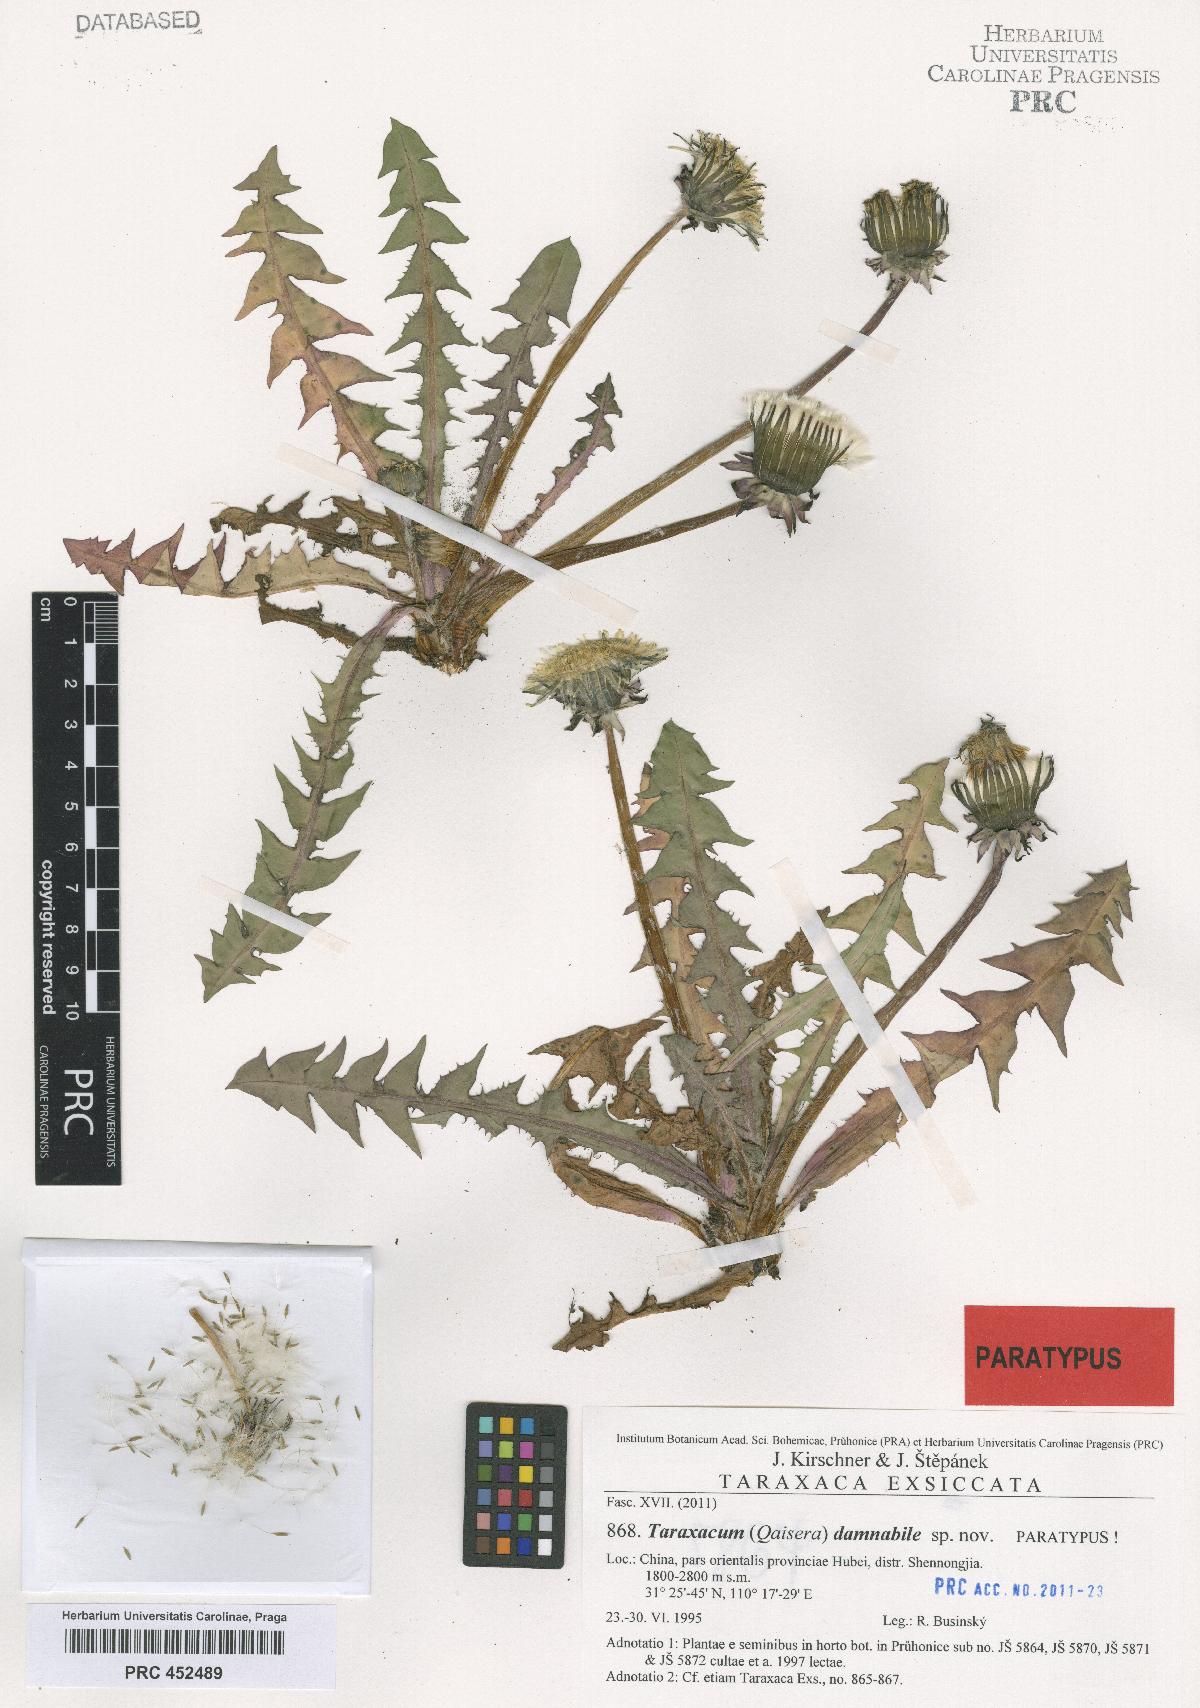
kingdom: Plantae
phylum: Tracheophyta
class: Magnoliopsida
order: Asterales
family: Asteraceae
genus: Taraxacum
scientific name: Taraxacum damnabile
